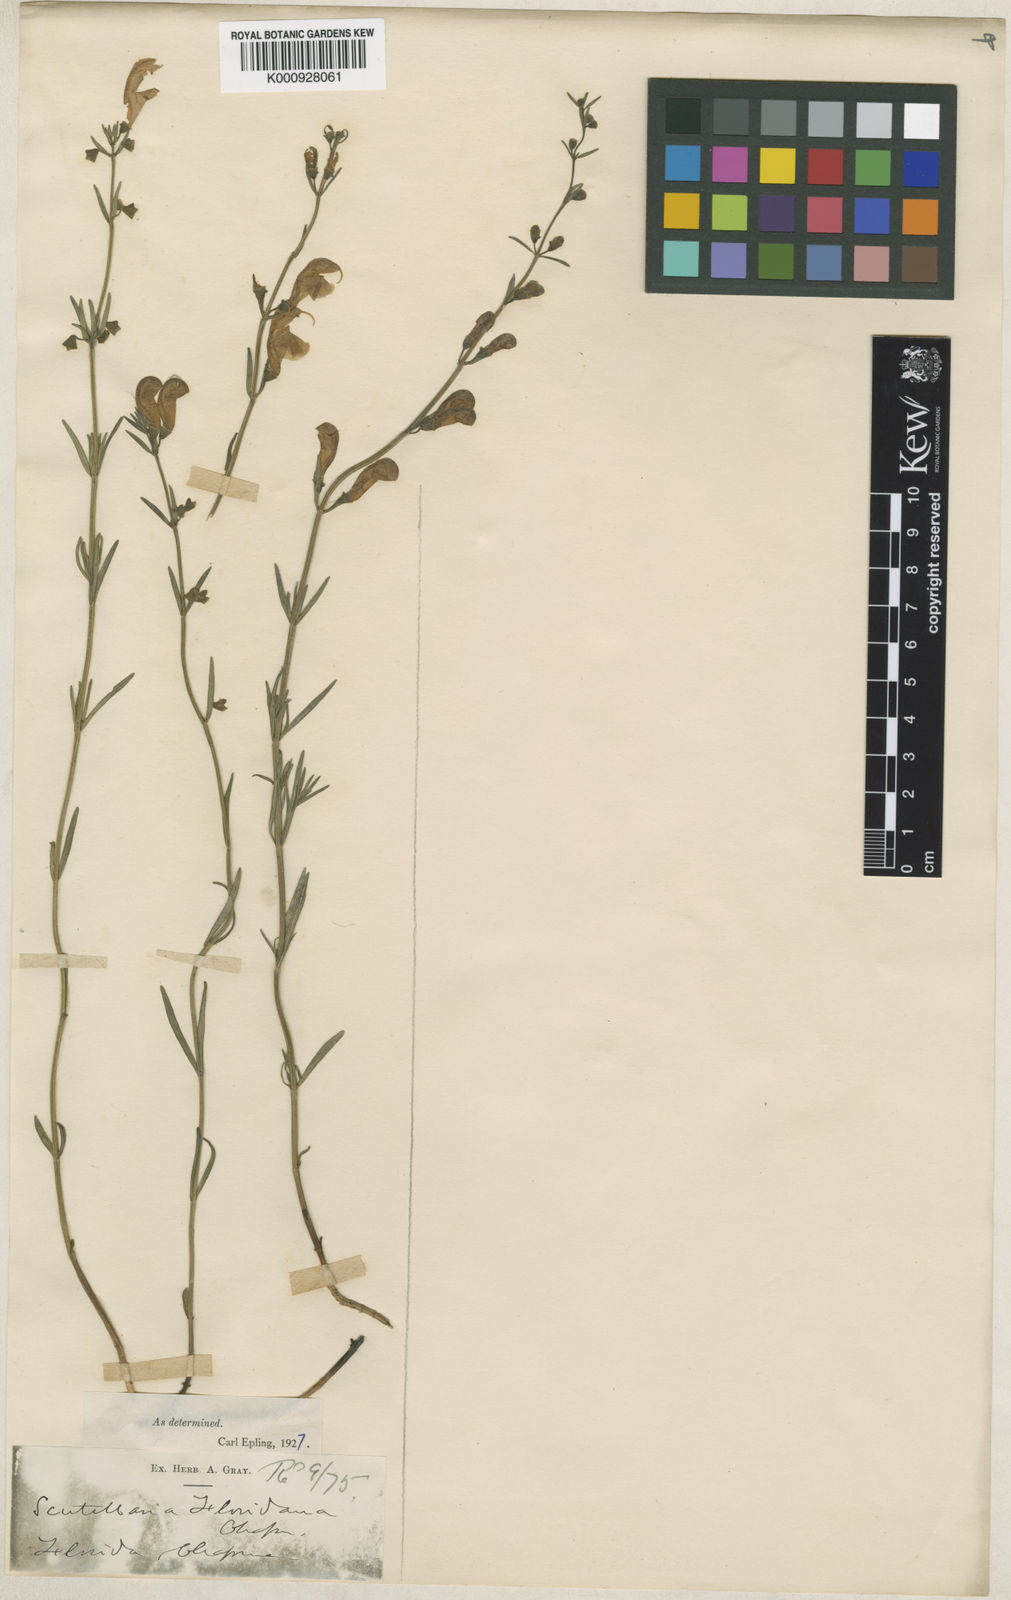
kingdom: Plantae
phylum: Tracheophyta
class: Magnoliopsida
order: Lamiales
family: Lamiaceae
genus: Scutellaria
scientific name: Scutellaria floridana
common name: Florida skullcap
